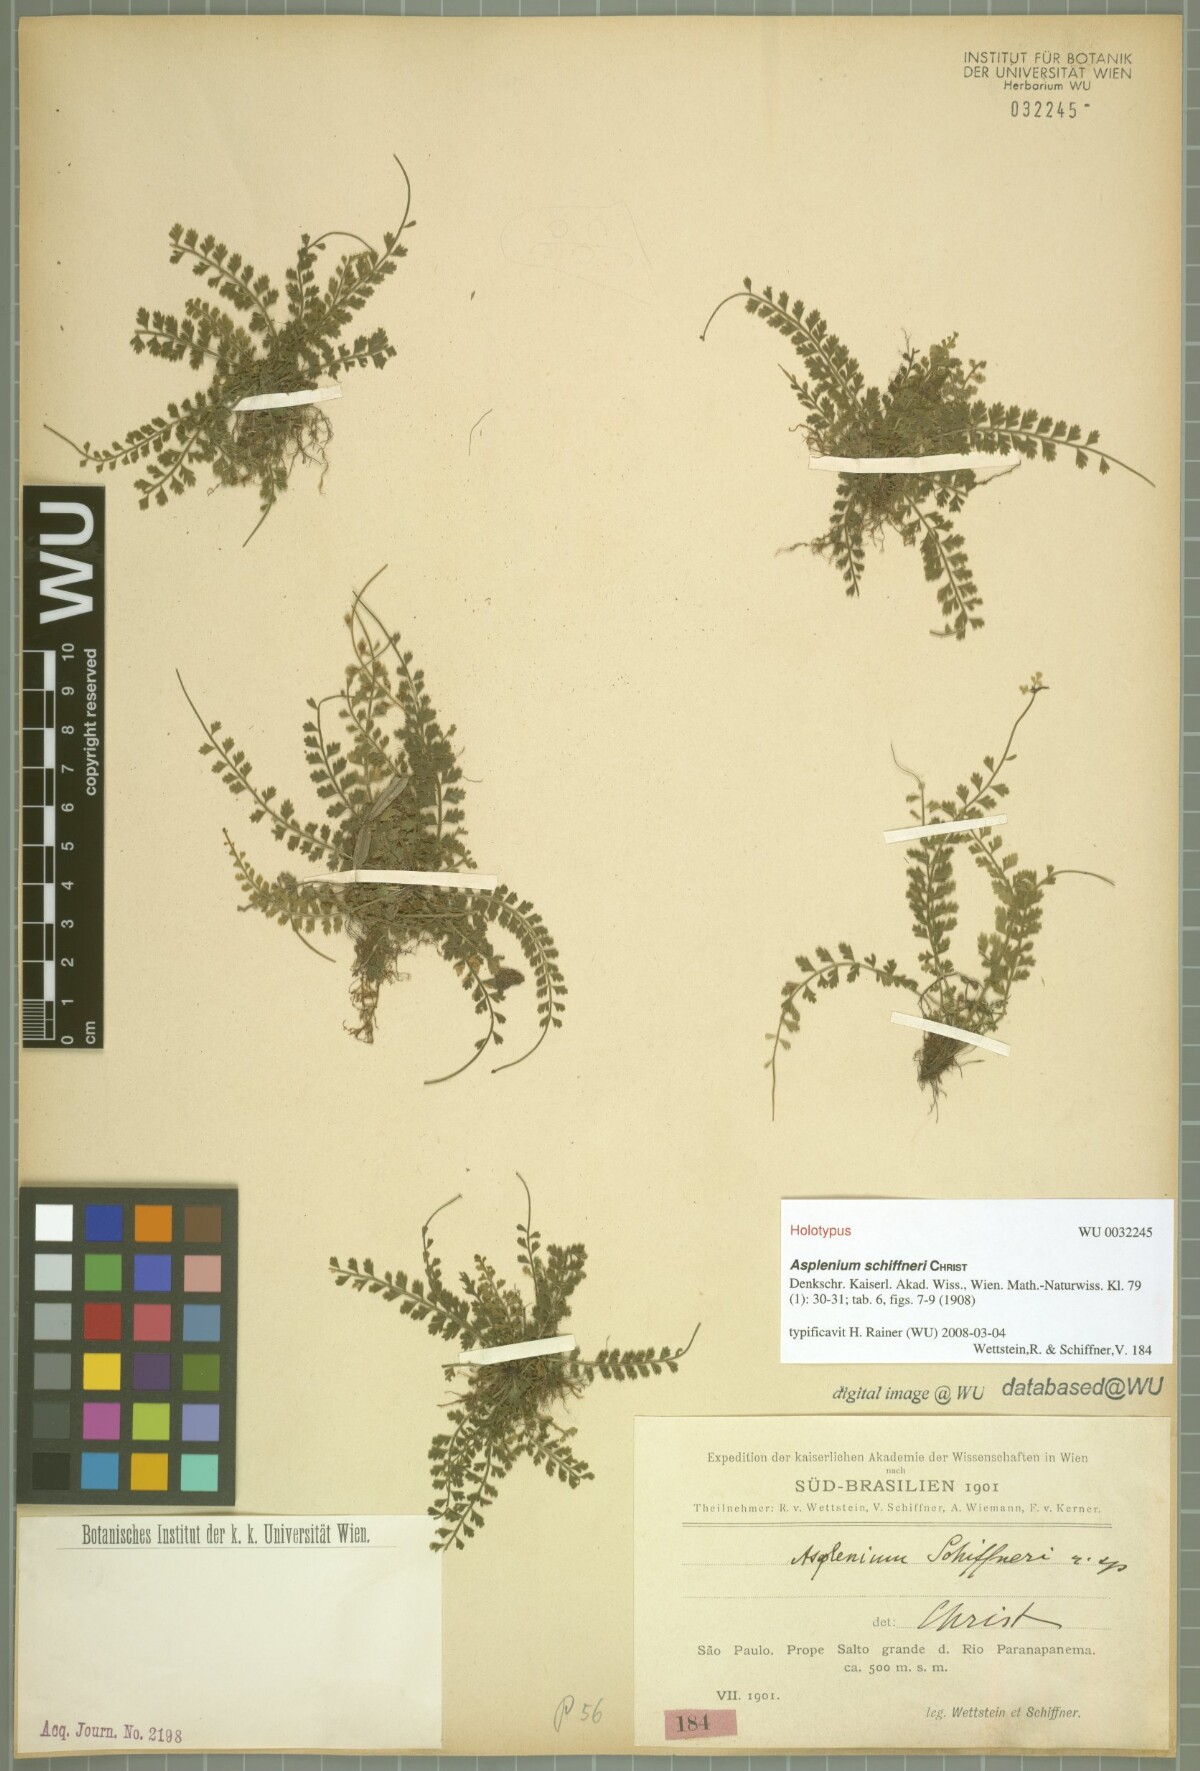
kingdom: Plantae
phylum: Tracheophyta
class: Polypodiopsida
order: Polypodiales
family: Aspleniaceae
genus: Asplenium
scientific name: Asplenium depauperatum
